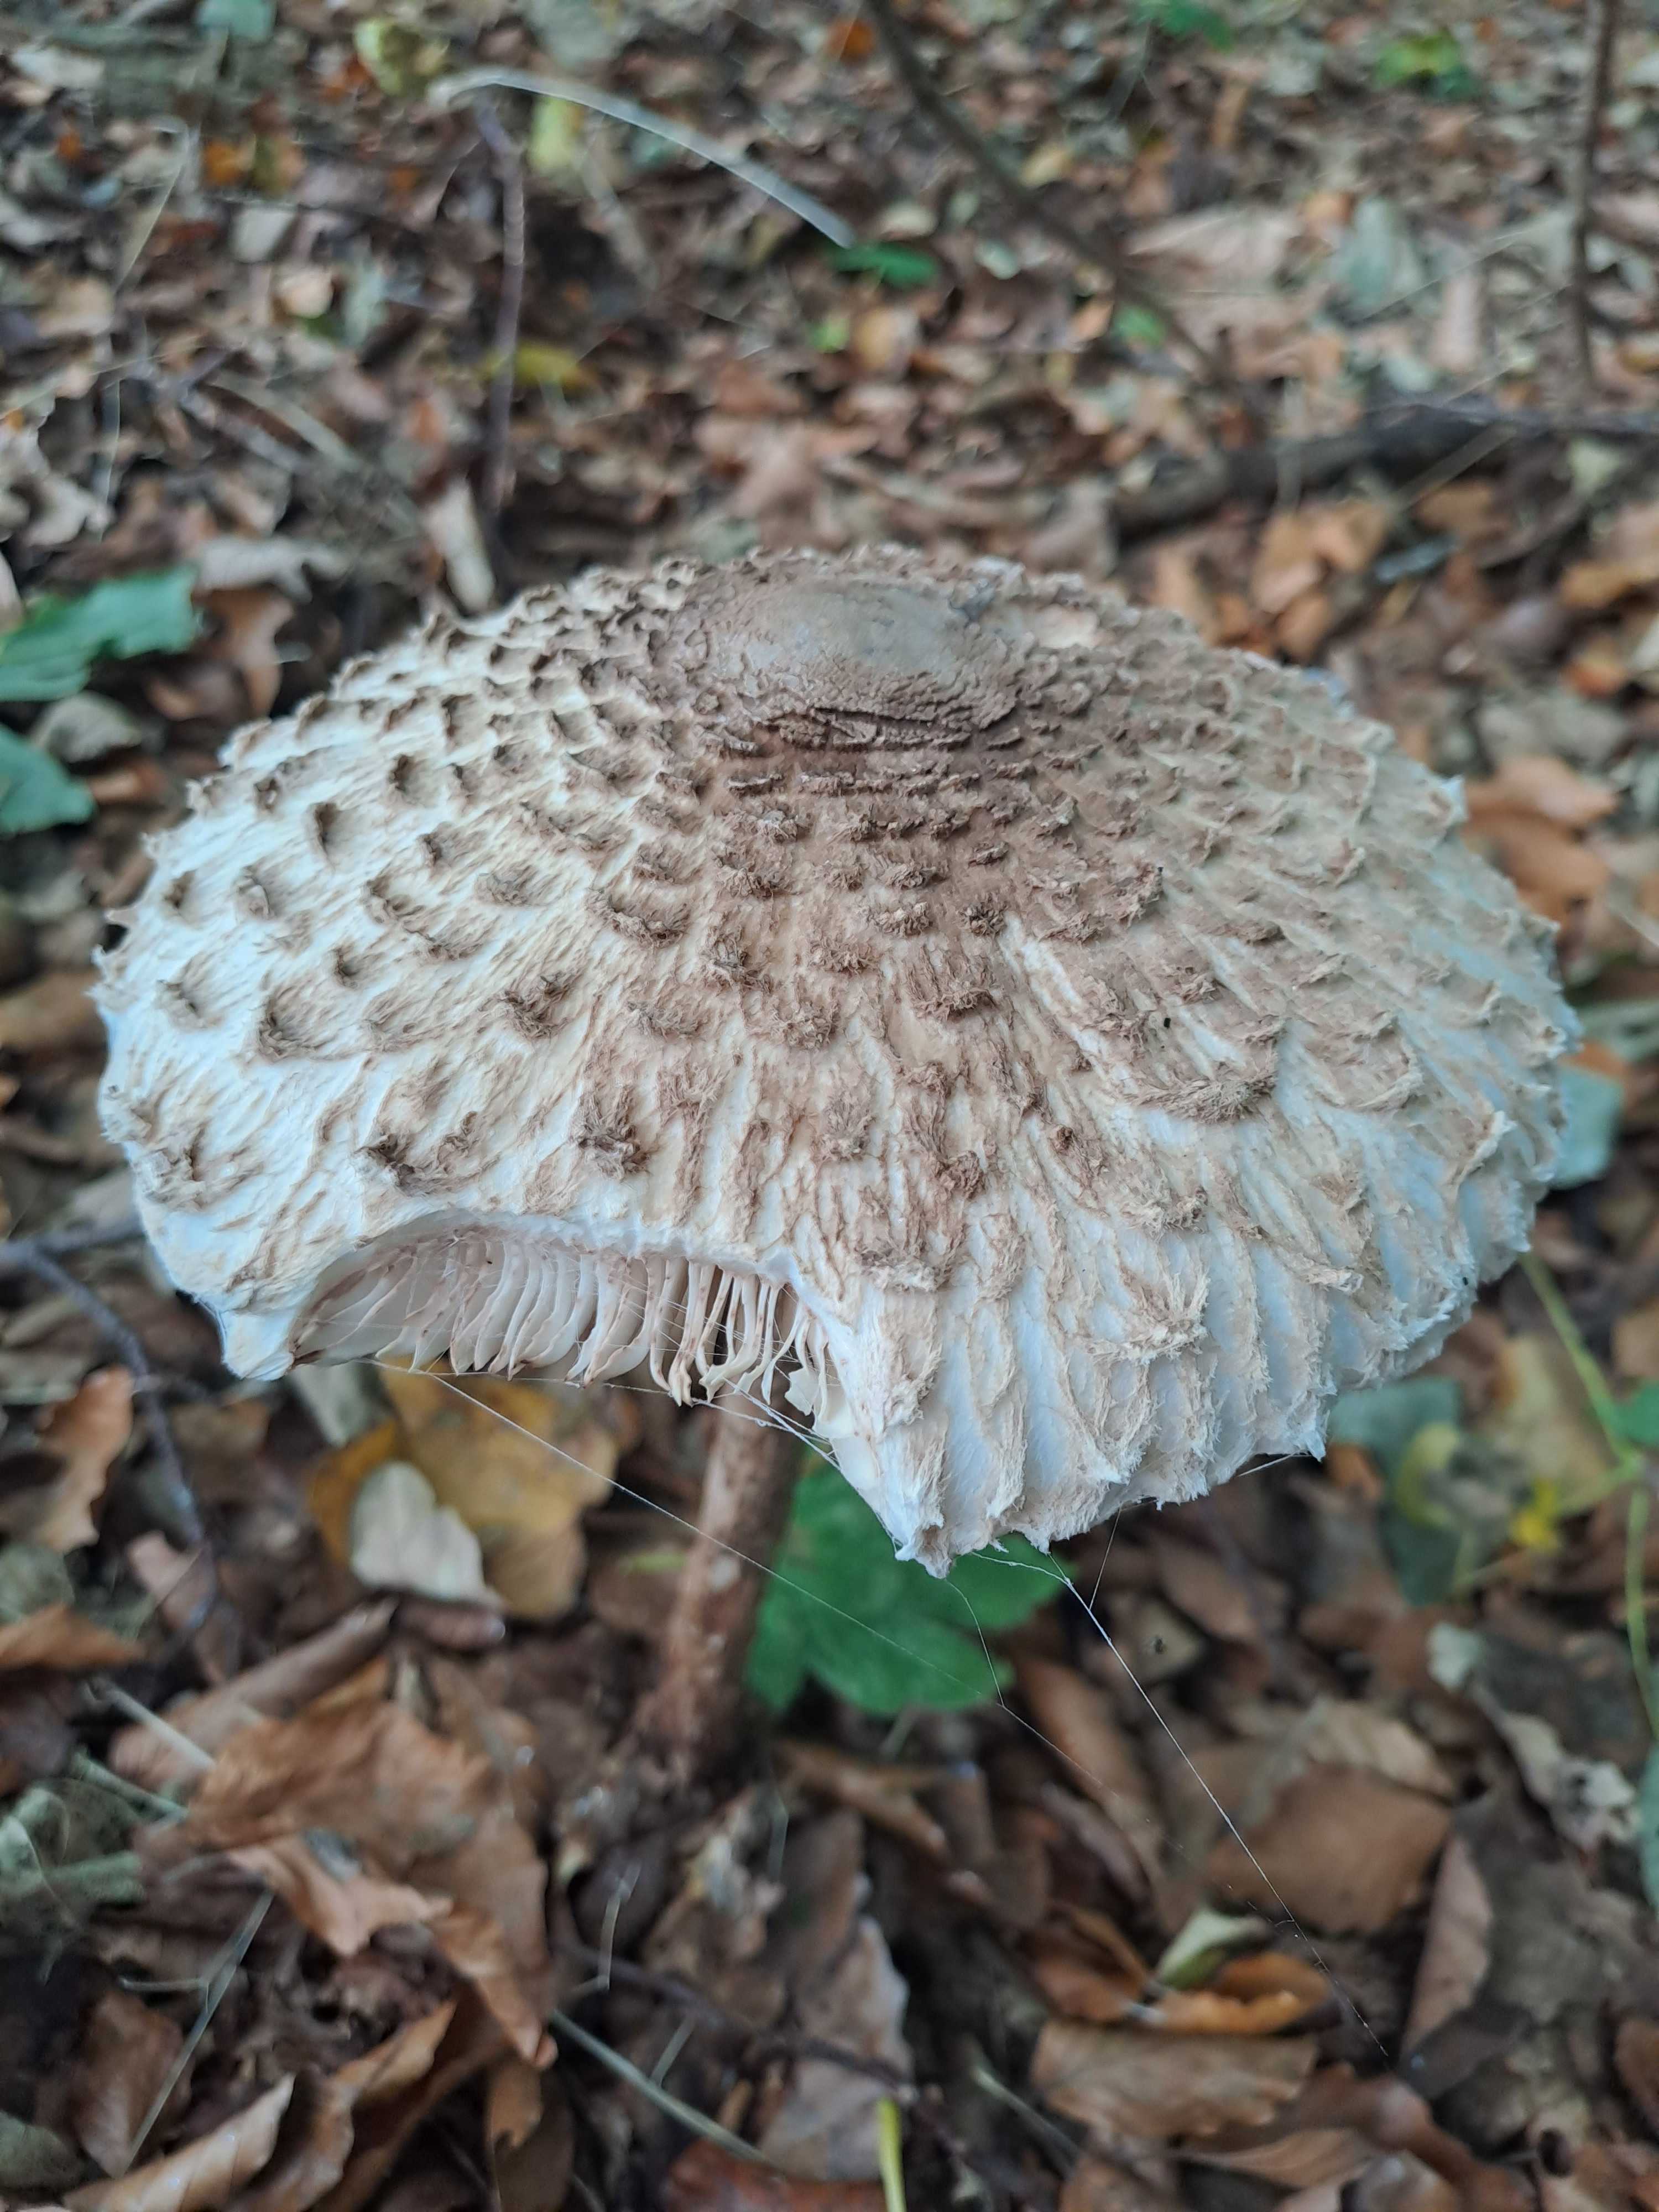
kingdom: Fungi
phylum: Basidiomycota
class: Agaricomycetes
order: Agaricales
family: Agaricaceae
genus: Chlorophyllum
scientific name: Chlorophyllum
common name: rabarberhat
